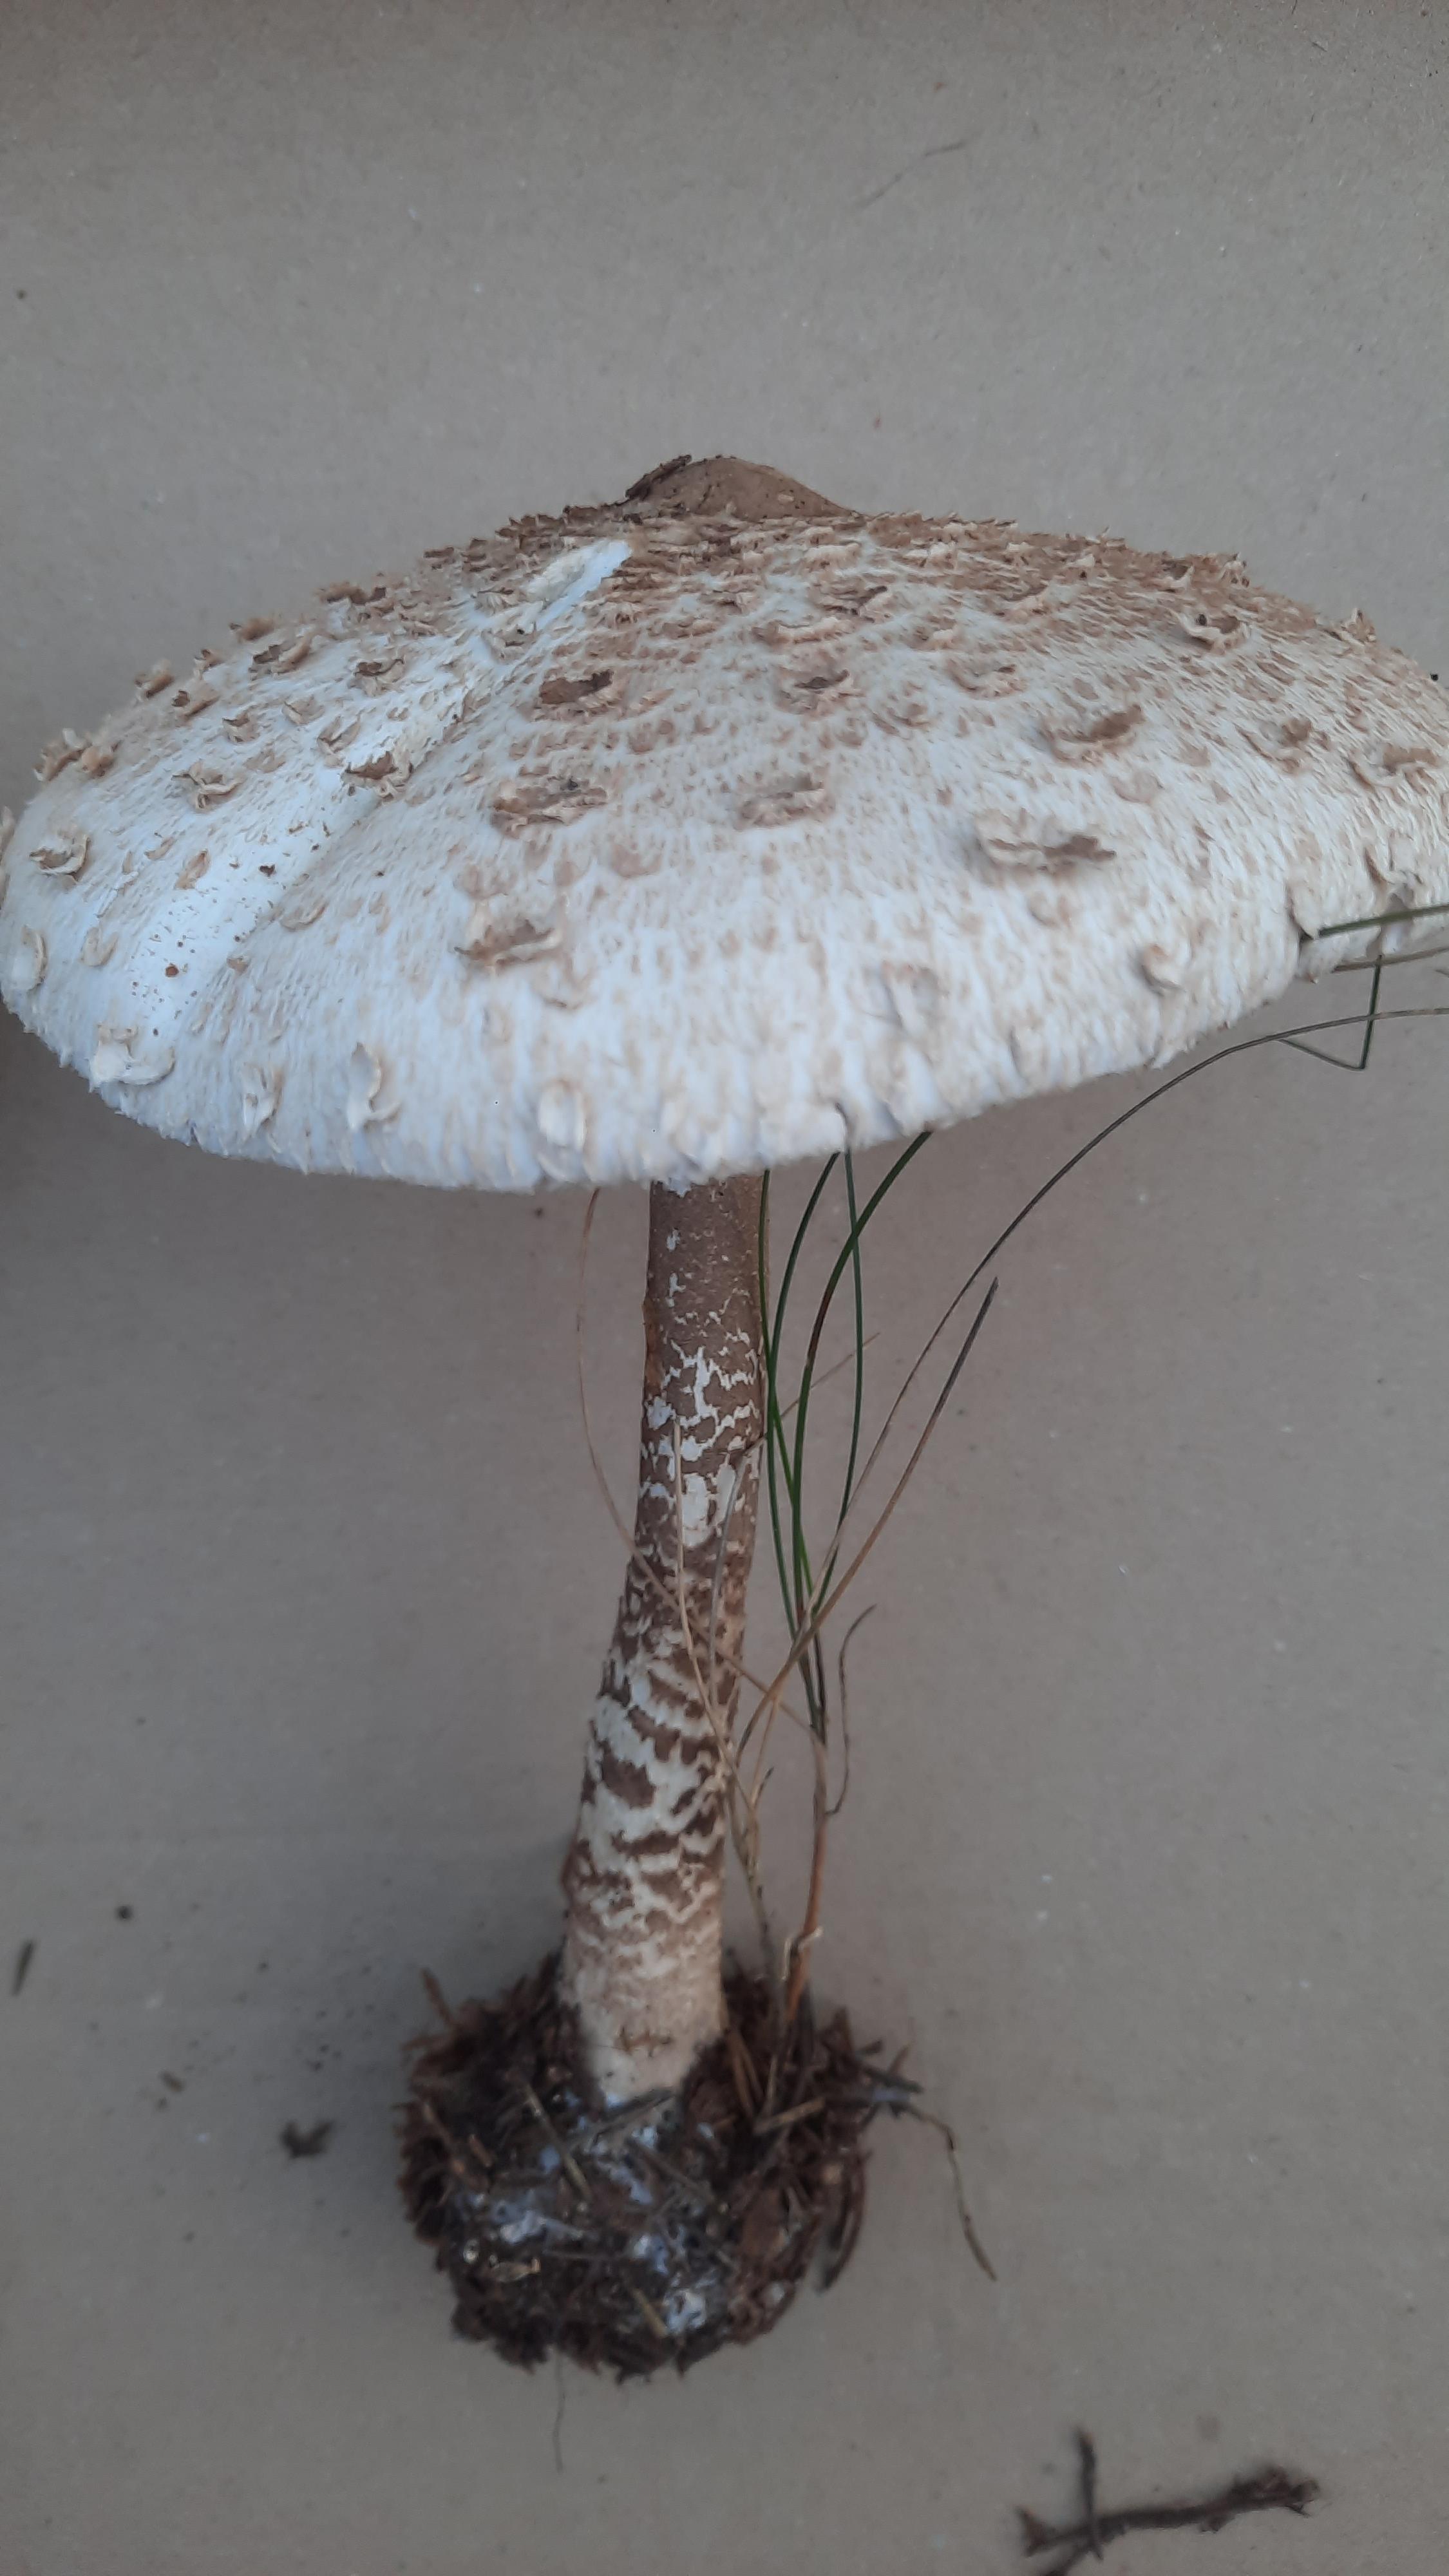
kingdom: Fungi
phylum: Basidiomycota
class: Agaricomycetes
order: Agaricales
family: Agaricaceae
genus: Macrolepiota
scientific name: Macrolepiota procera
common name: stor kæmpeparasolhat
